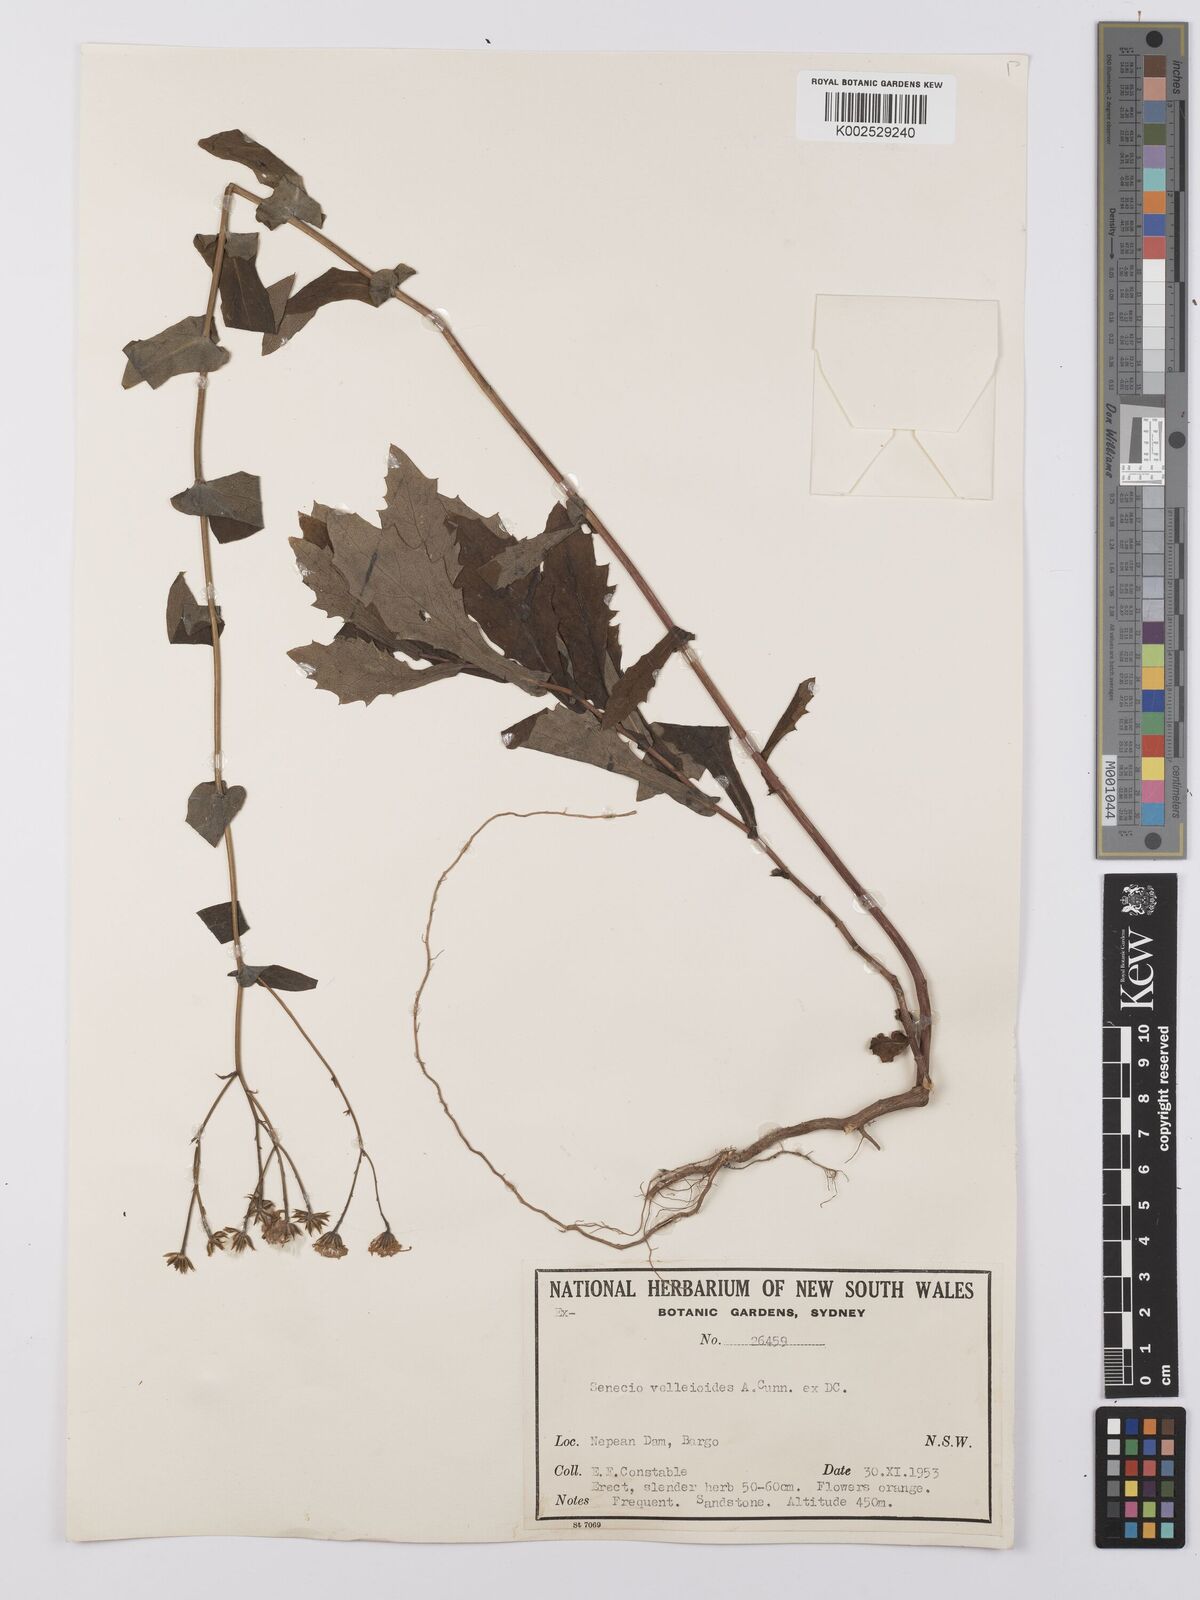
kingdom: Plantae
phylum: Tracheophyta
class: Magnoliopsida
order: Asterales
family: Asteraceae
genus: Lordhowea
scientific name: Lordhowea velleioides
